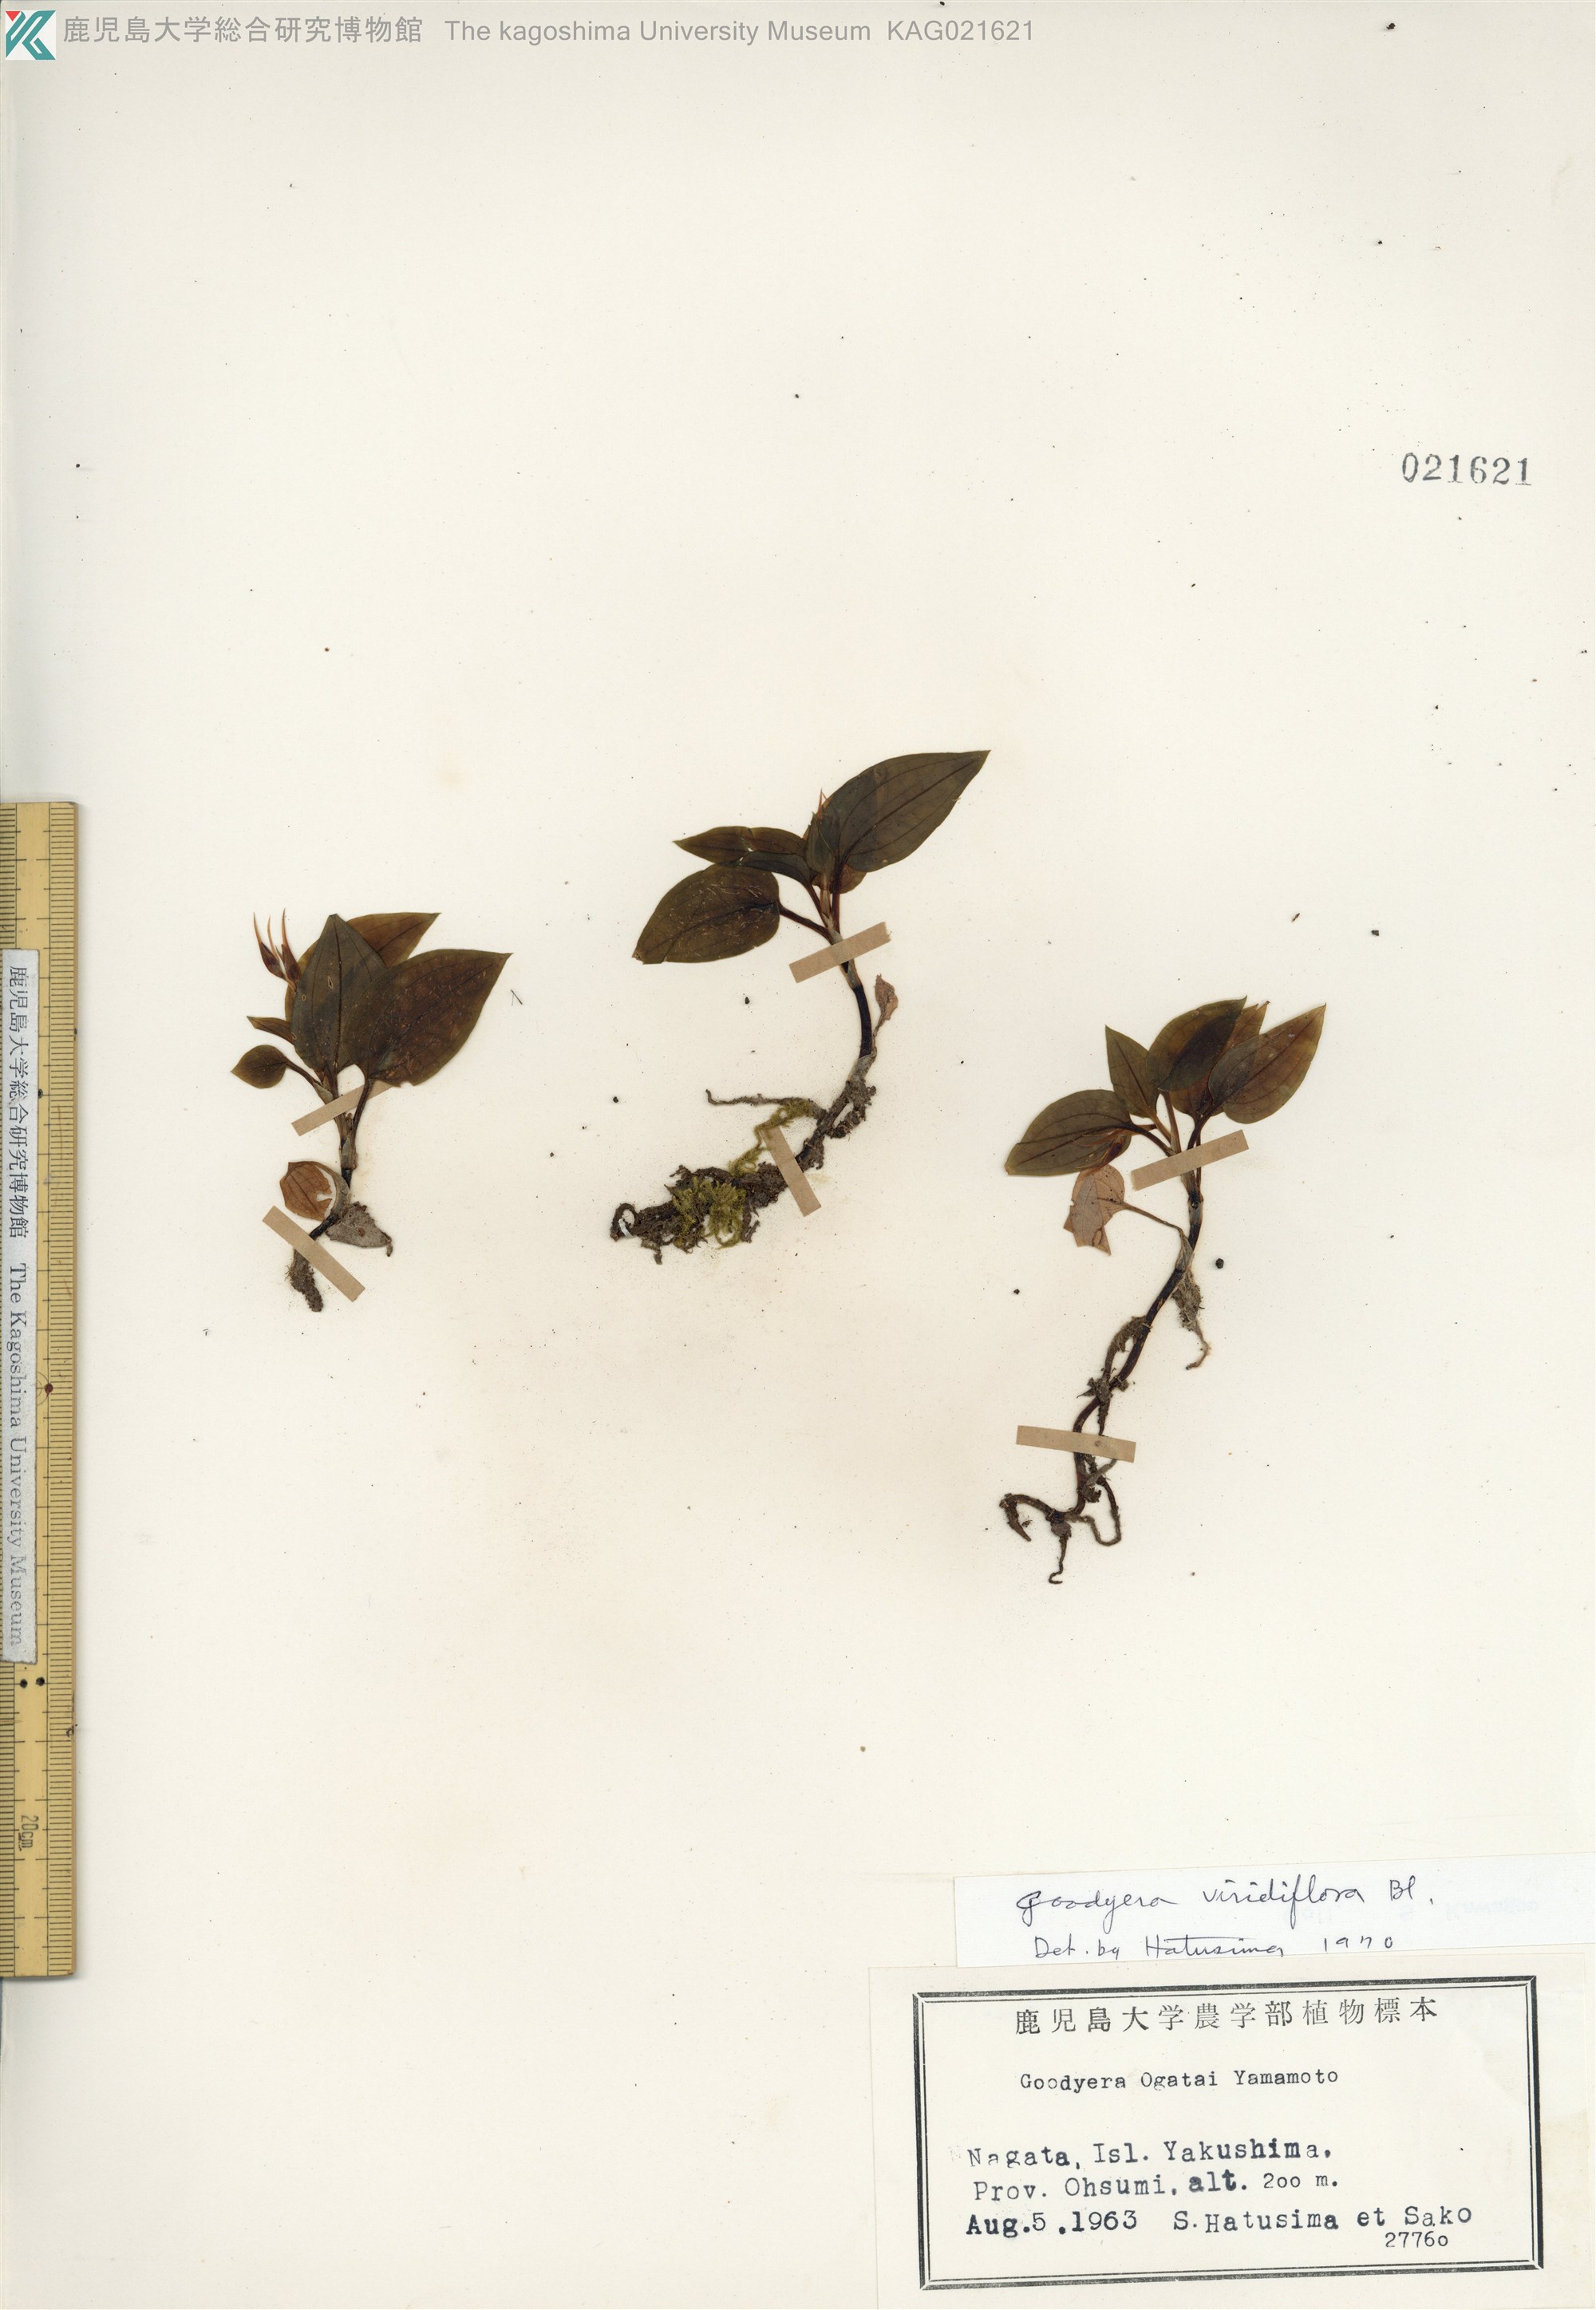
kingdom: Plantae
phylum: Tracheophyta
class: Liliopsida
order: Asparagales
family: Orchidaceae
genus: Goodyera
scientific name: Goodyera viridiflora
